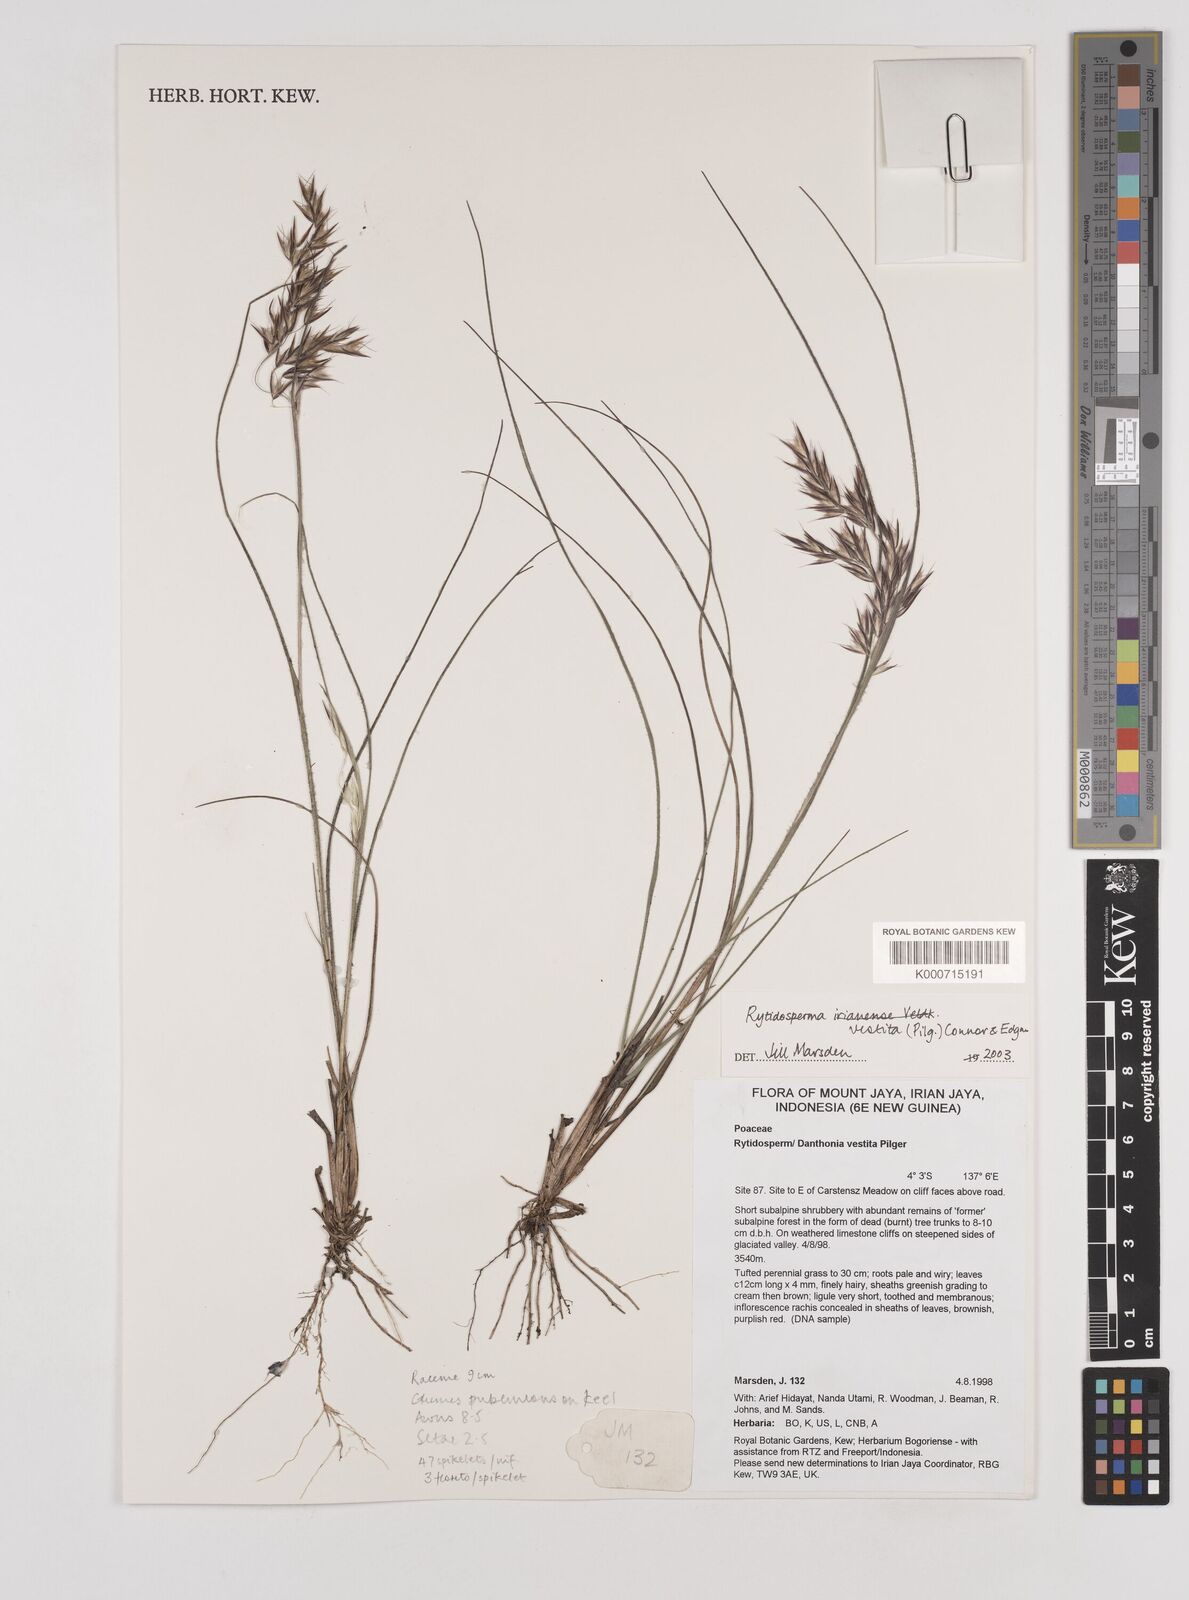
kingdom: Plantae
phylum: Tracheophyta
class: Liliopsida
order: Poales
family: Poaceae
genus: Rytidosperma
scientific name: Rytidosperma vestitum
